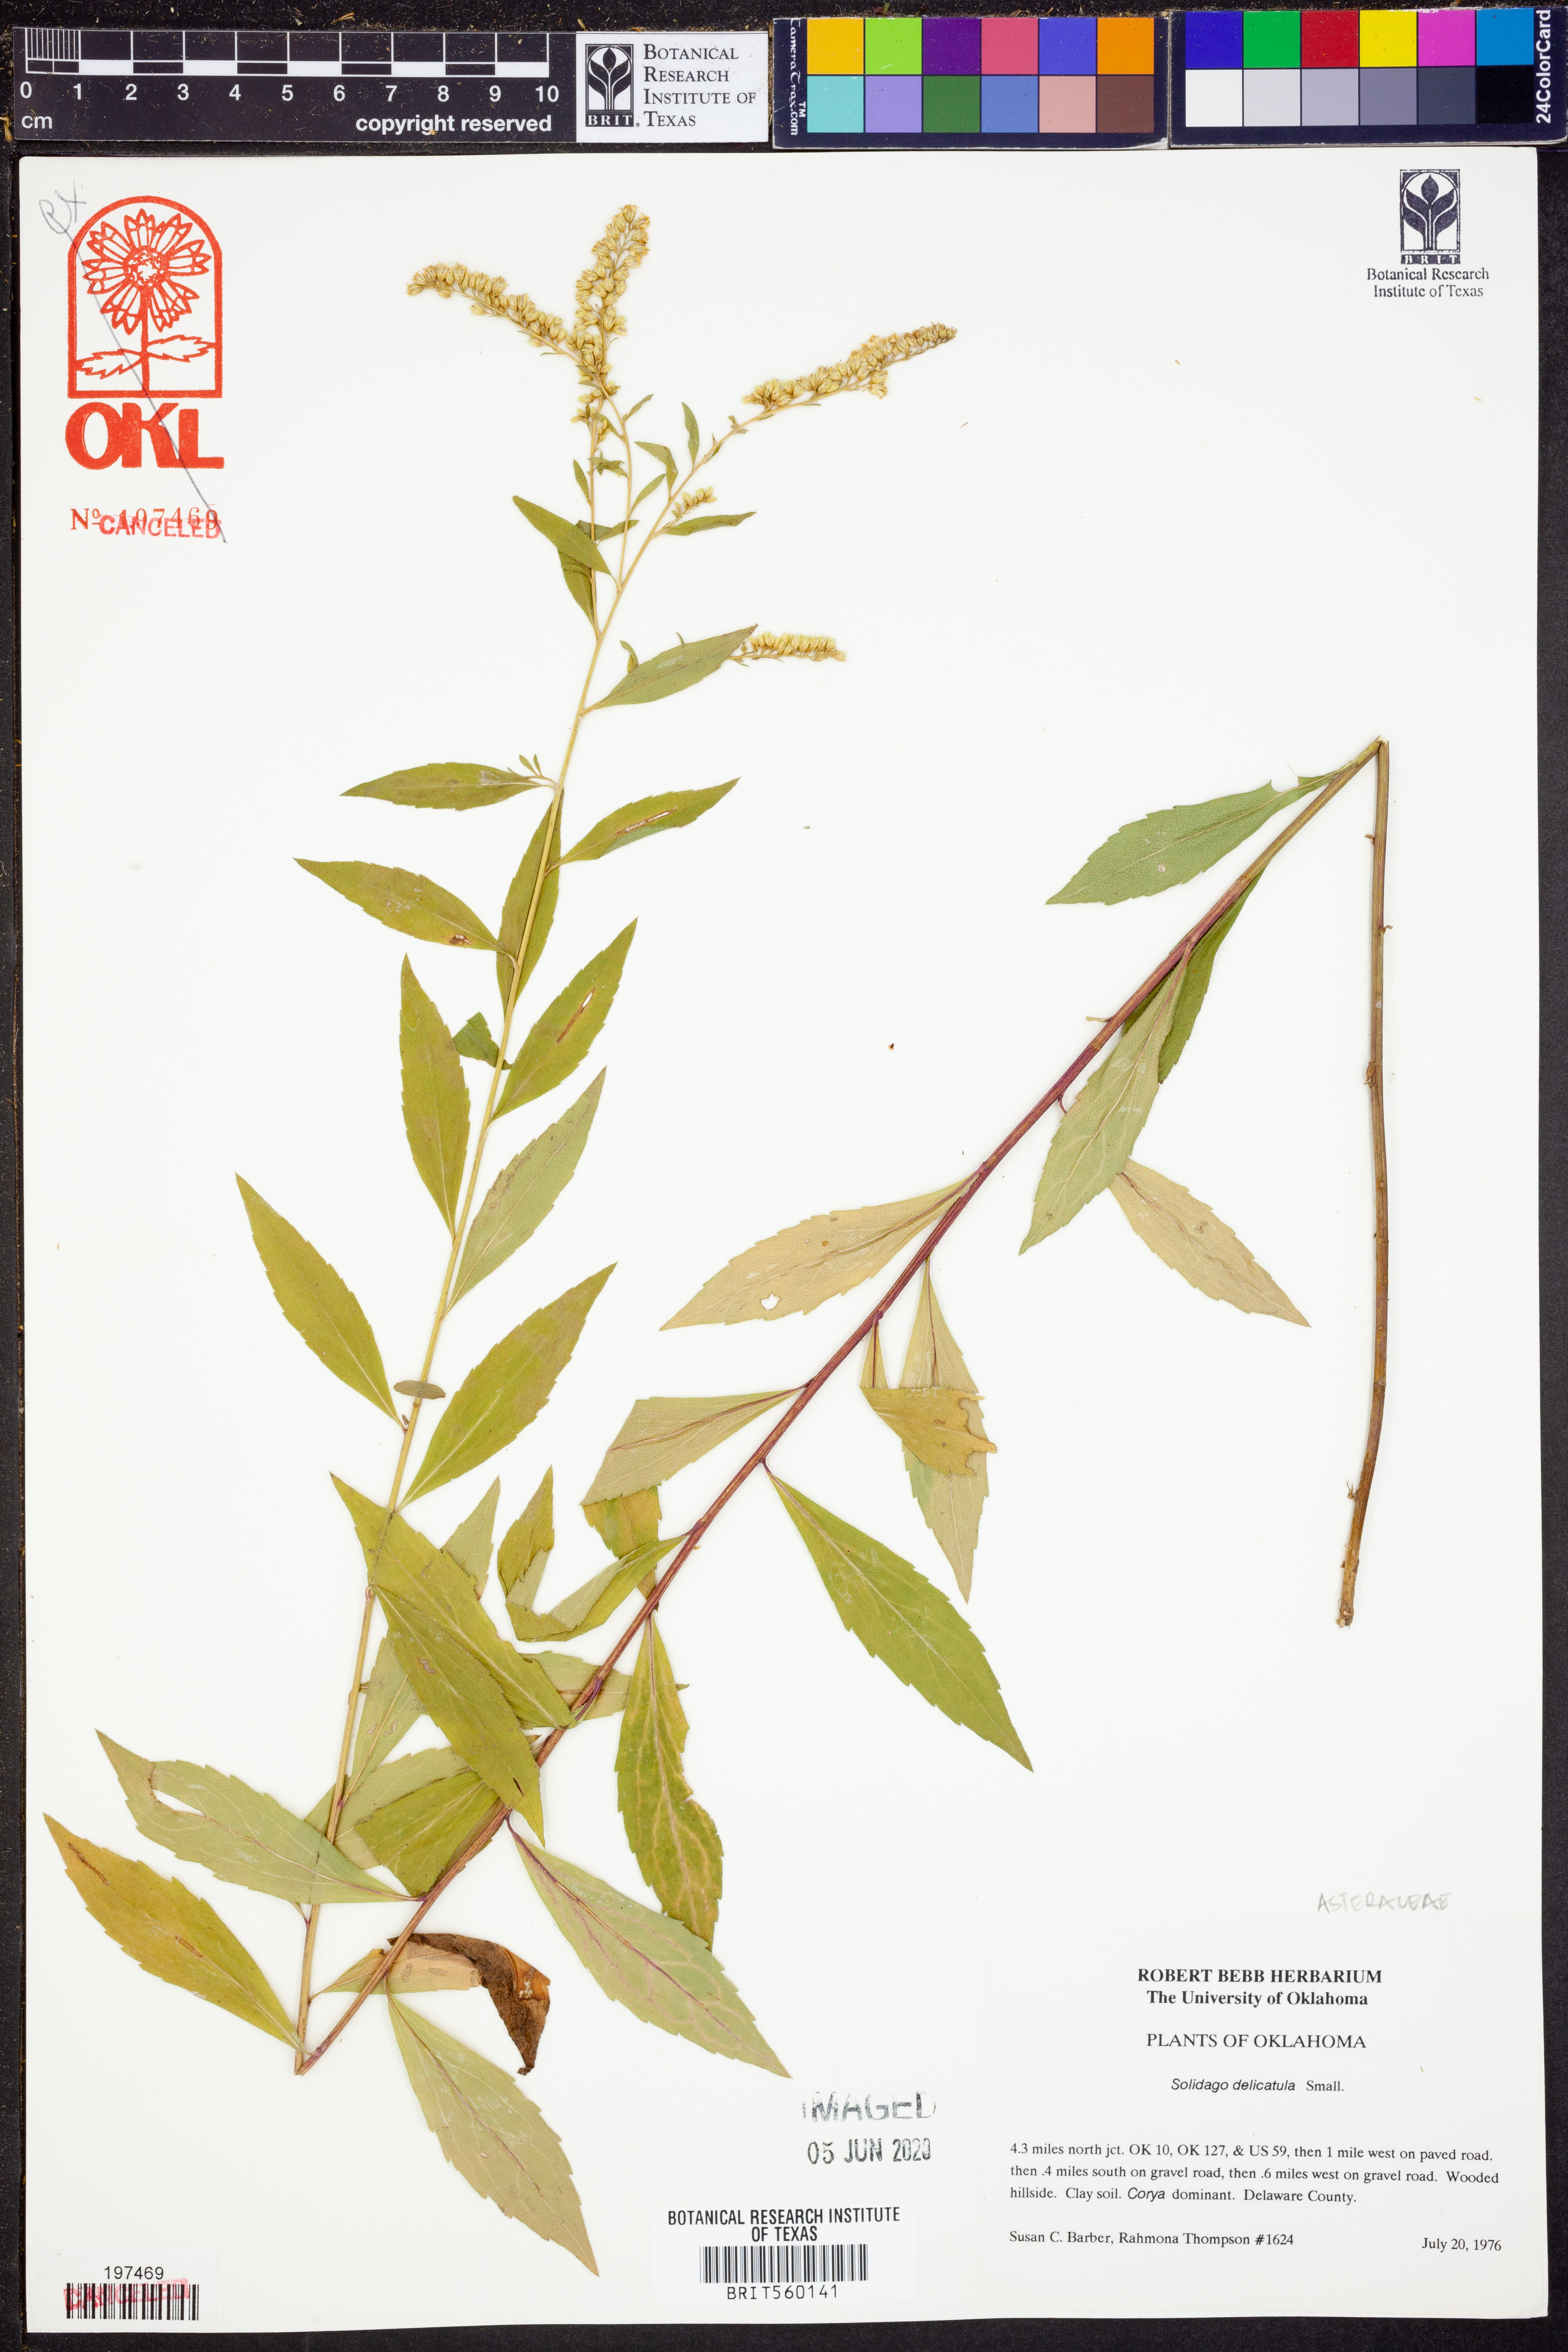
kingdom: Plantae
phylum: Tracheophyta
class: Magnoliopsida
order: Asterales
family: Asteraceae
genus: Solidago
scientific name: Solidago delicatula
